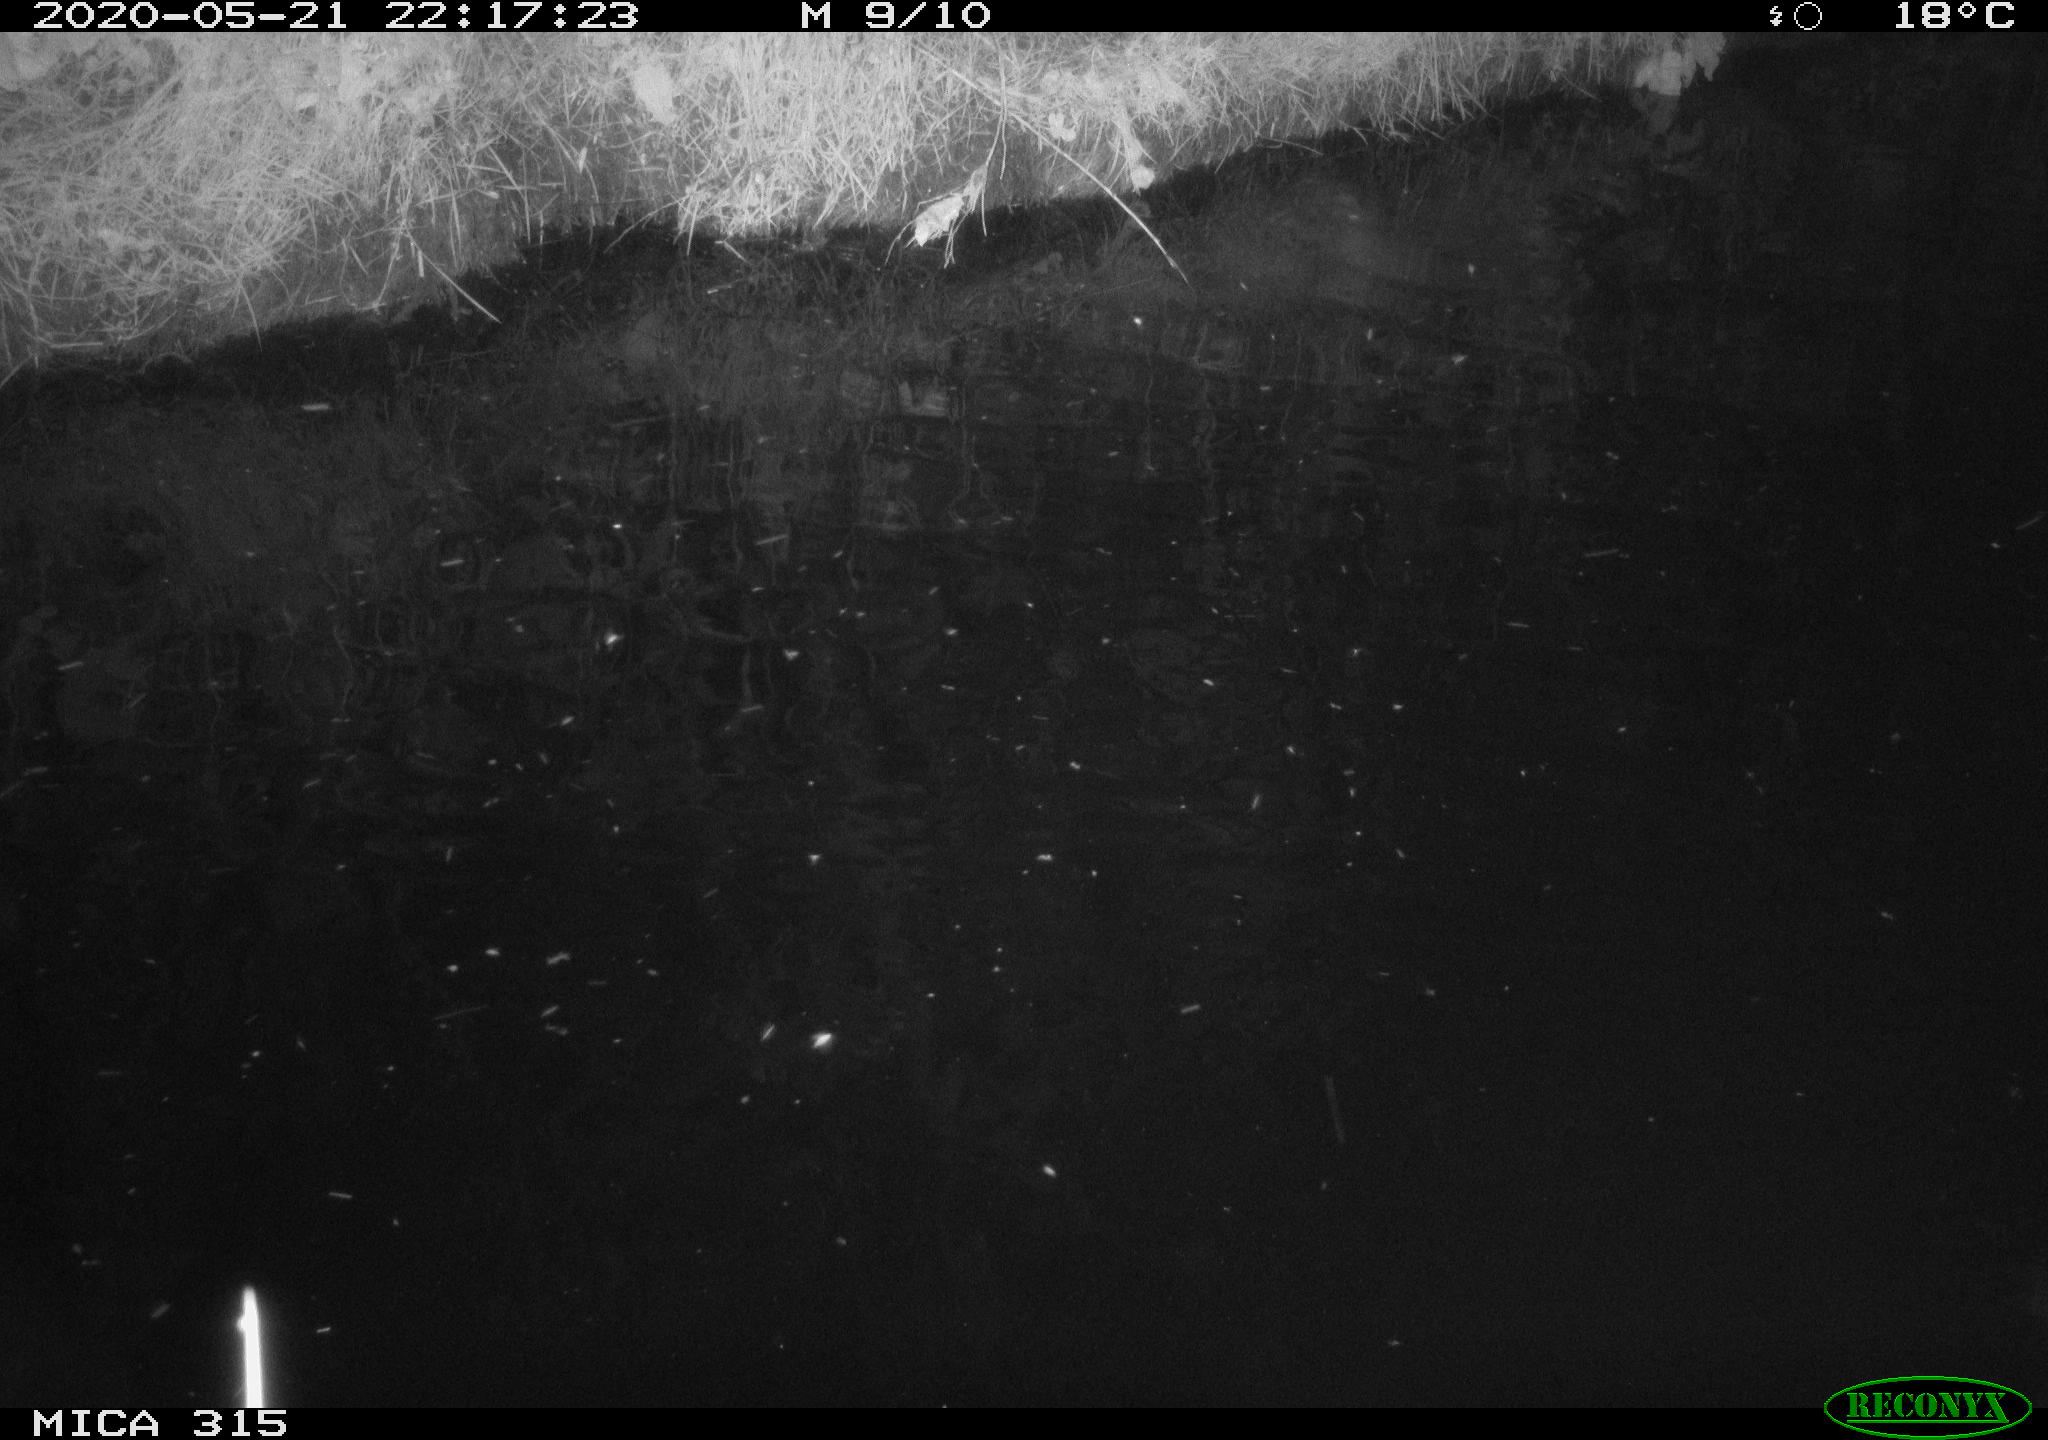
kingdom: Animalia
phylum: Chordata
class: Aves
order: Pelecaniformes
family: Ardeidae
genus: Ardea
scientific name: Ardea cinerea
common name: Grey heron
